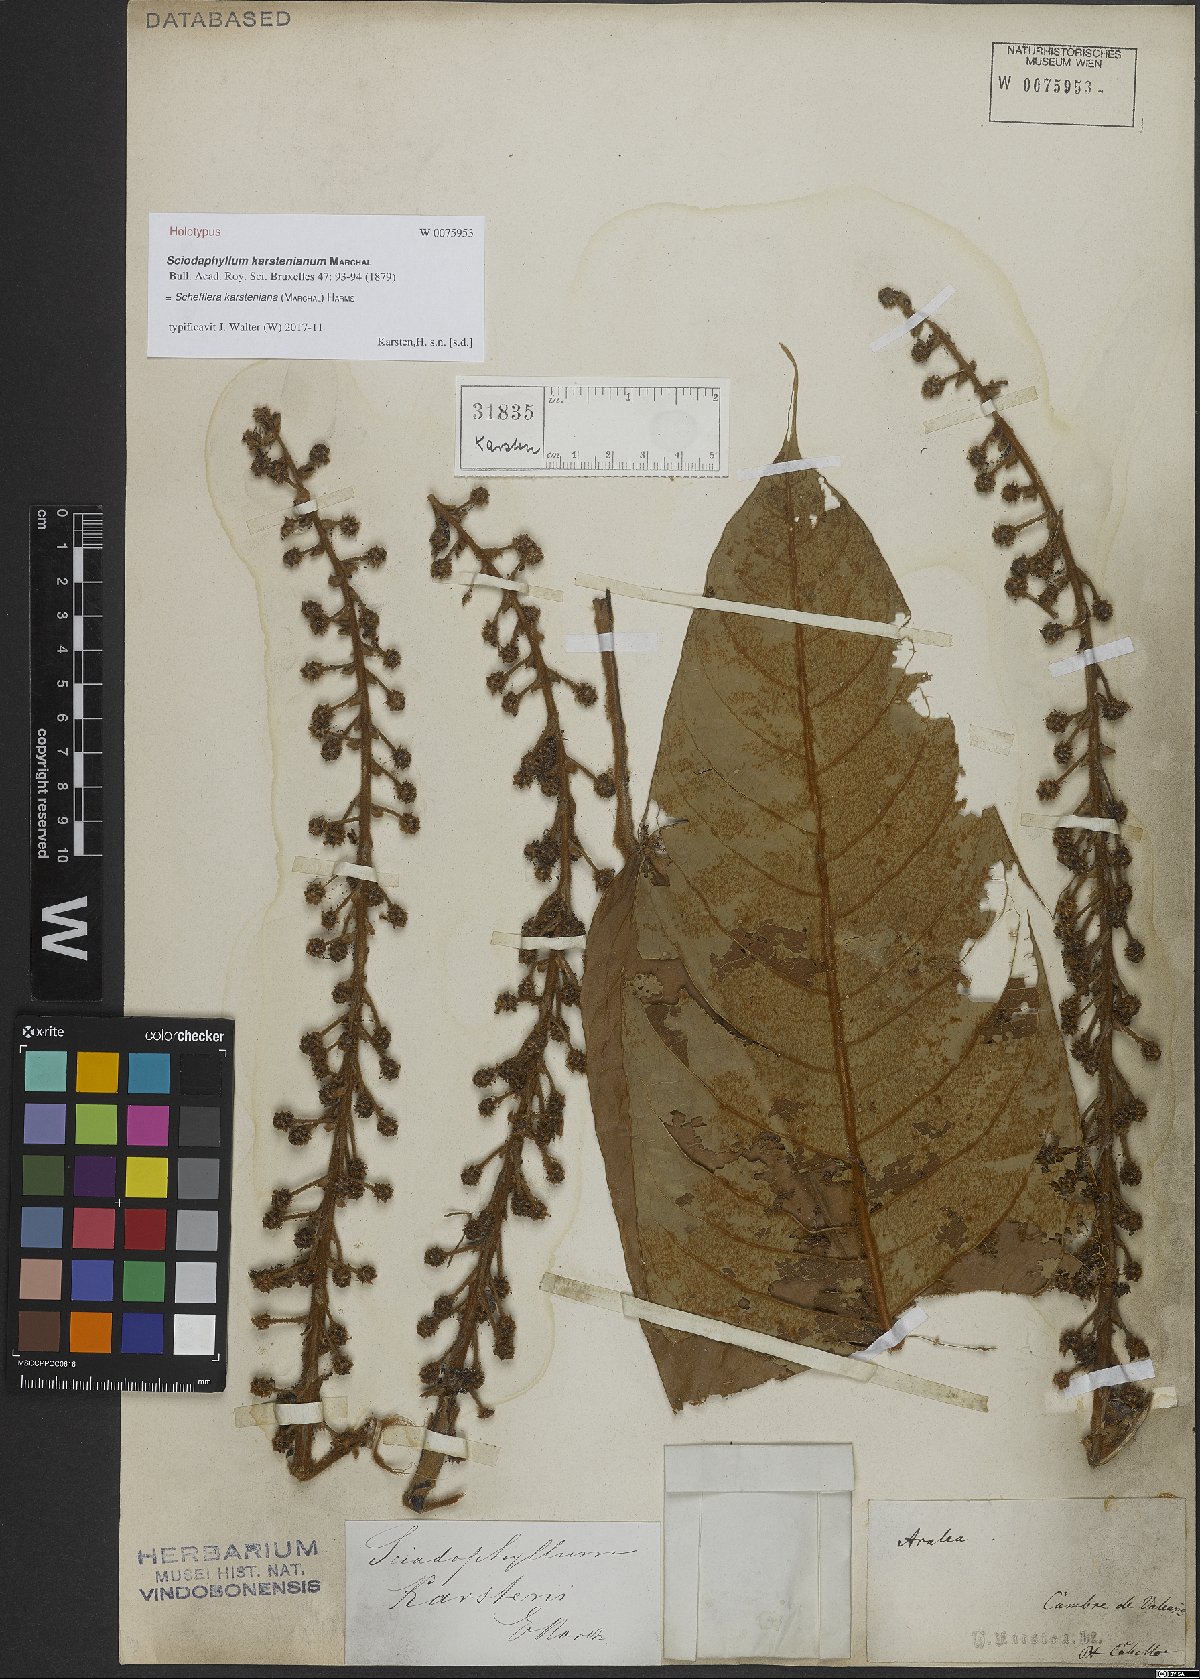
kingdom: Plantae
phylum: Tracheophyta
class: Magnoliopsida
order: Apiales
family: Araliaceae
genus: Sciodaphyllum
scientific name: Sciodaphyllum karstenianum
